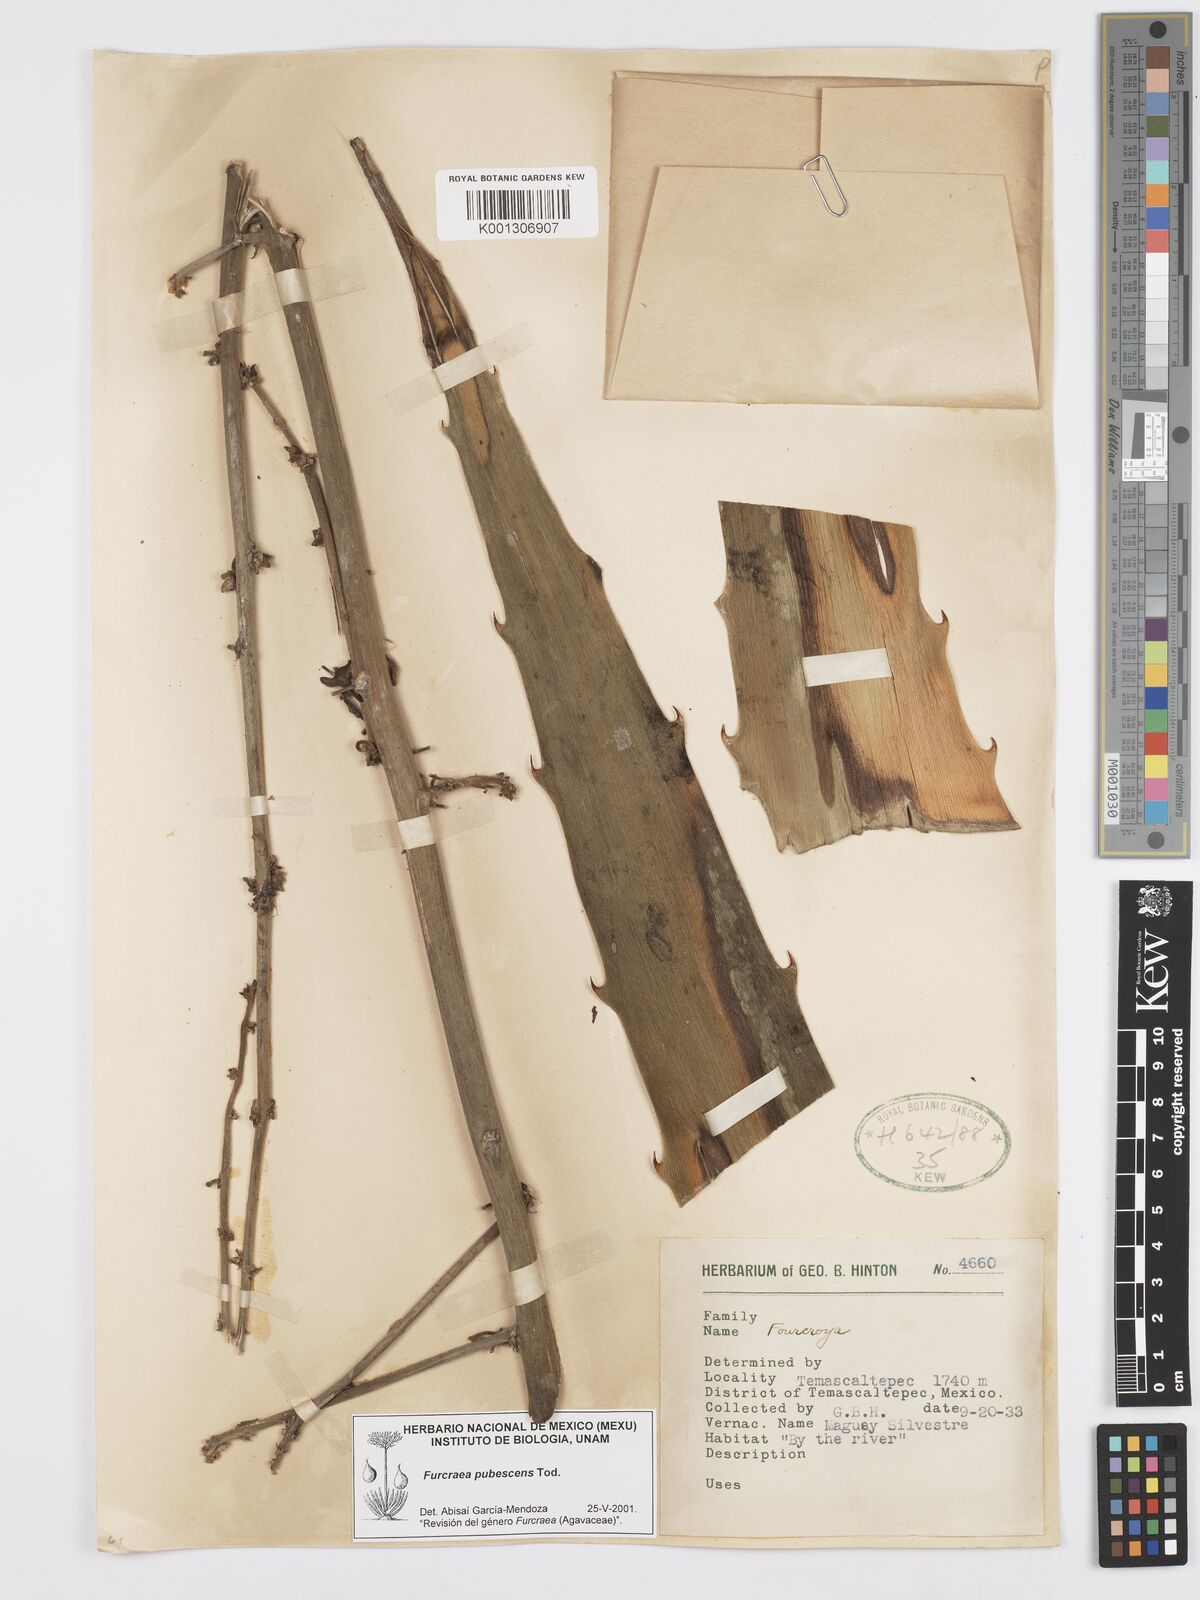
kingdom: Plantae
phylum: Tracheophyta
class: Liliopsida
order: Asparagales
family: Asparagaceae
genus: Furcraea
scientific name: Furcraea pubescens
